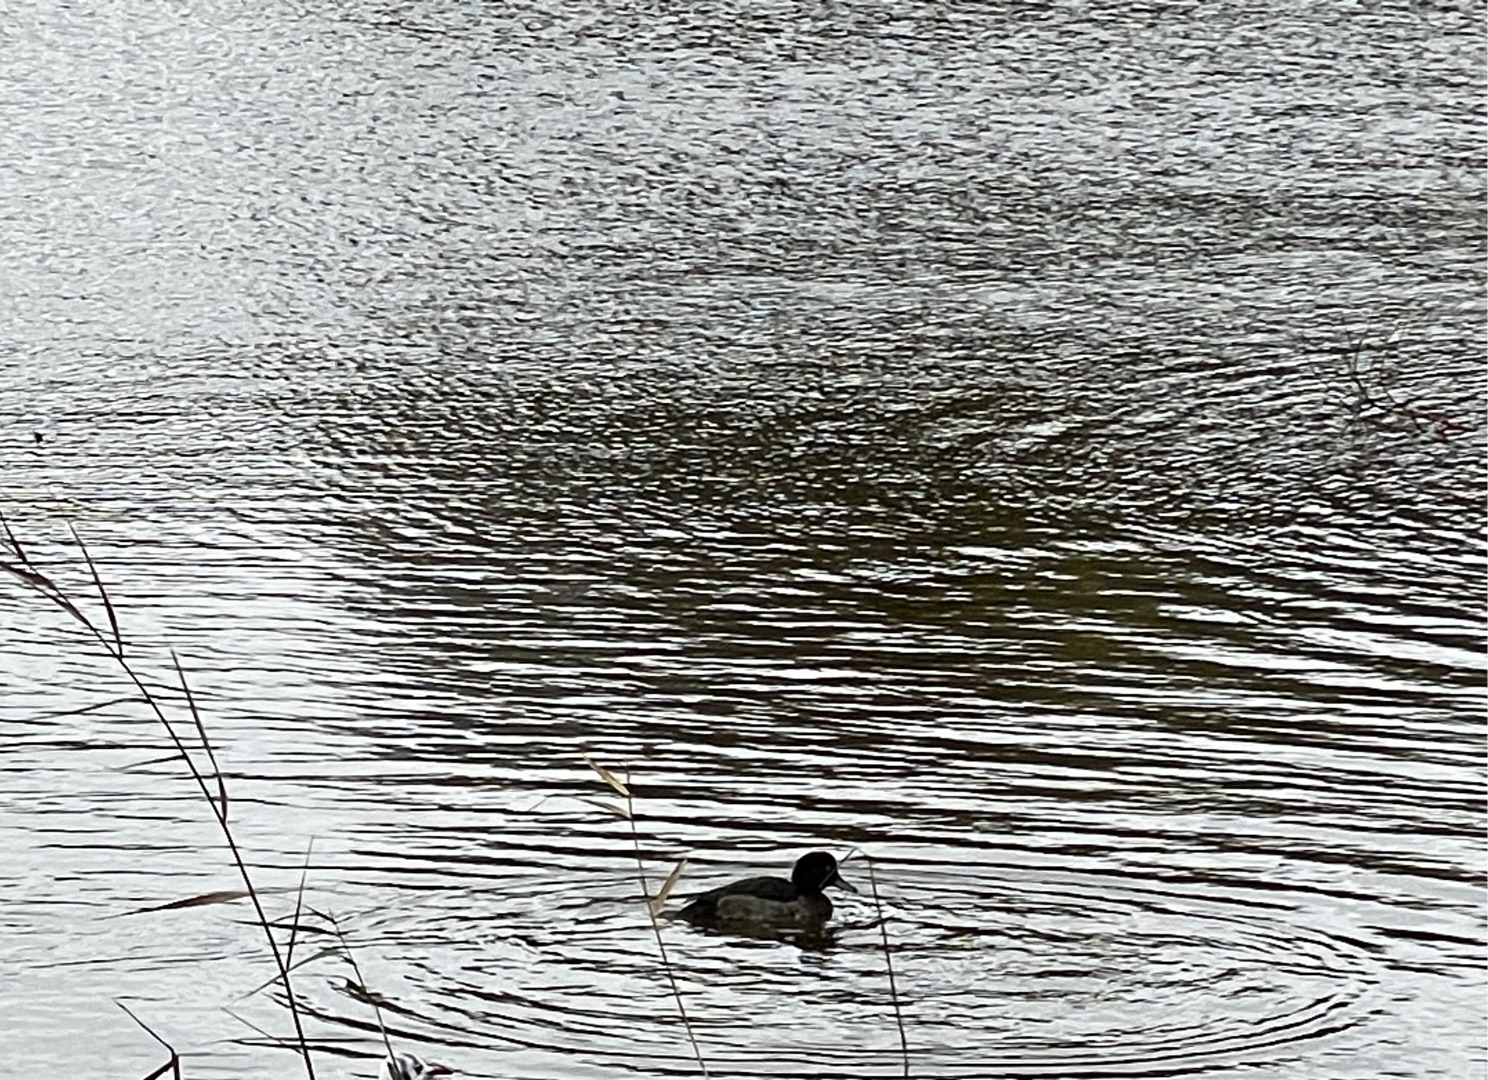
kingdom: Animalia
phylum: Chordata
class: Aves
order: Anseriformes
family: Anatidae
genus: Aythya
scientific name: Aythya fuligula
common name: Troldand
